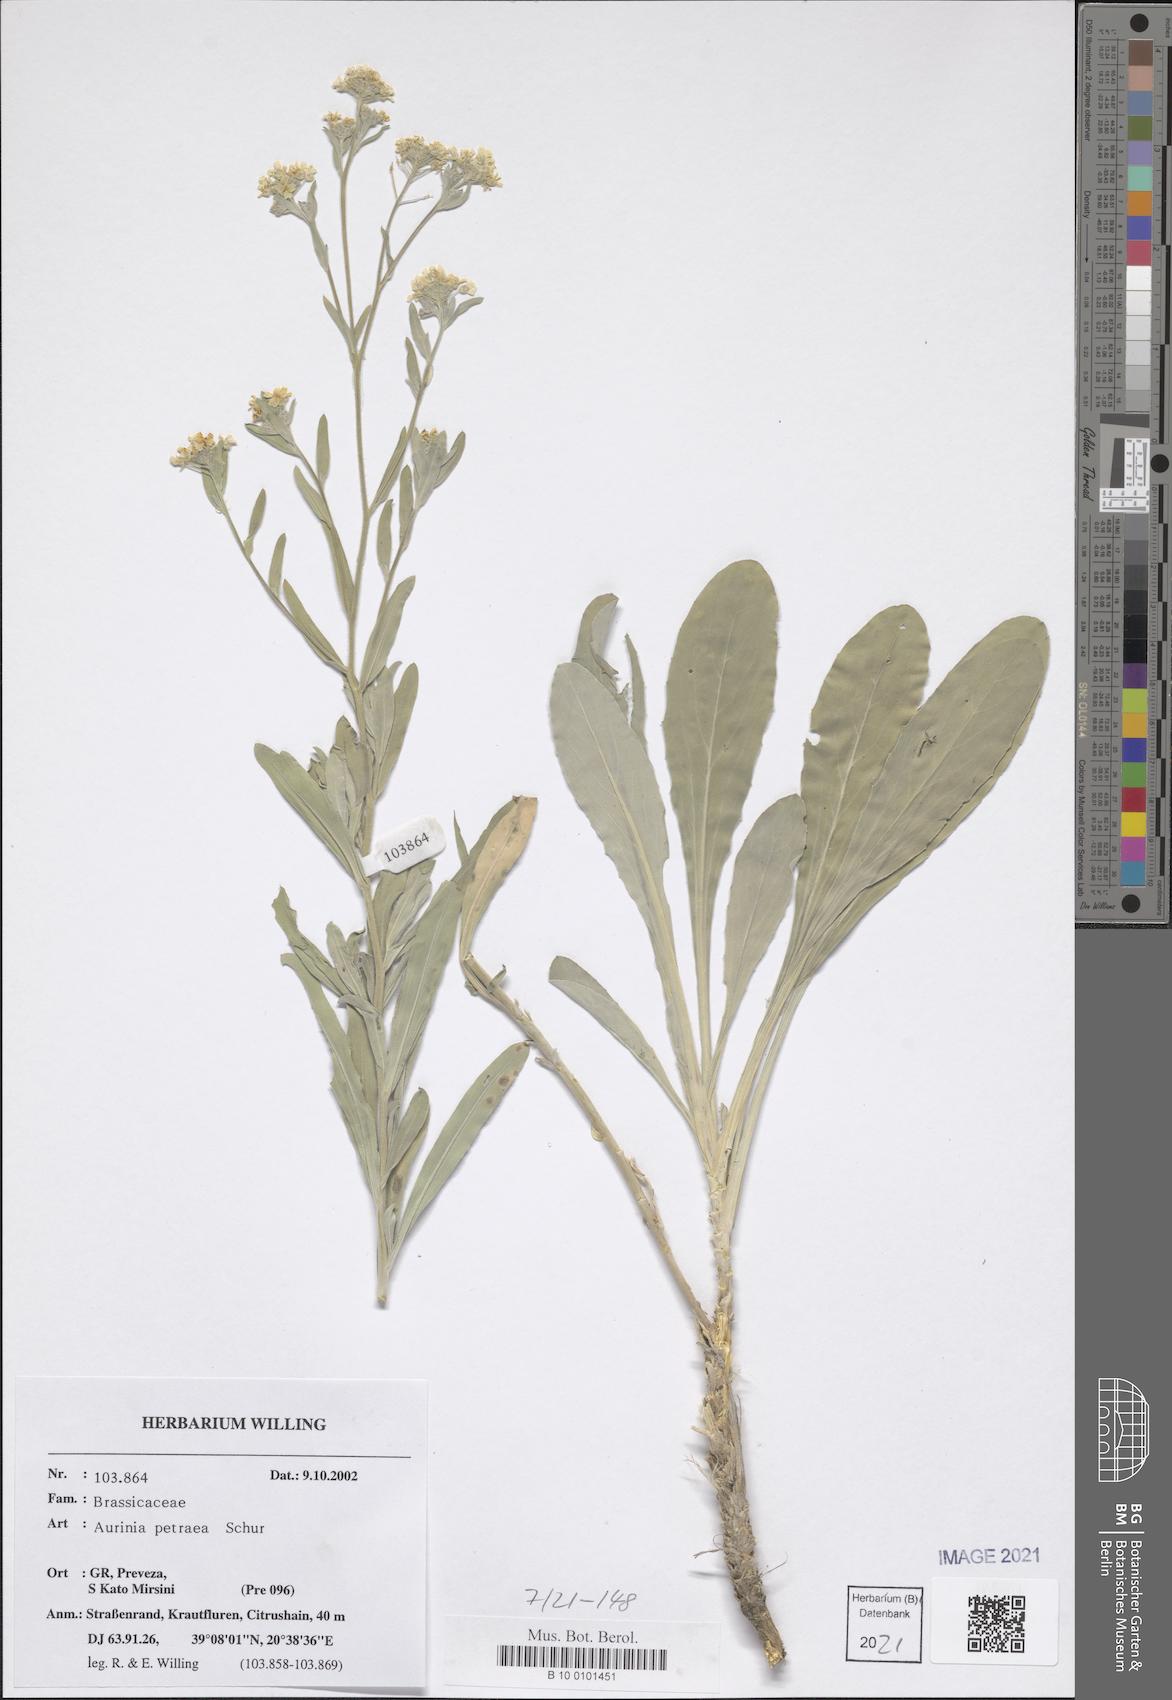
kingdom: Plantae
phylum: Tracheophyta
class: Magnoliopsida
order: Brassicales
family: Brassicaceae
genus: Aurinia
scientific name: Aurinia petraea
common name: Goldentuft
